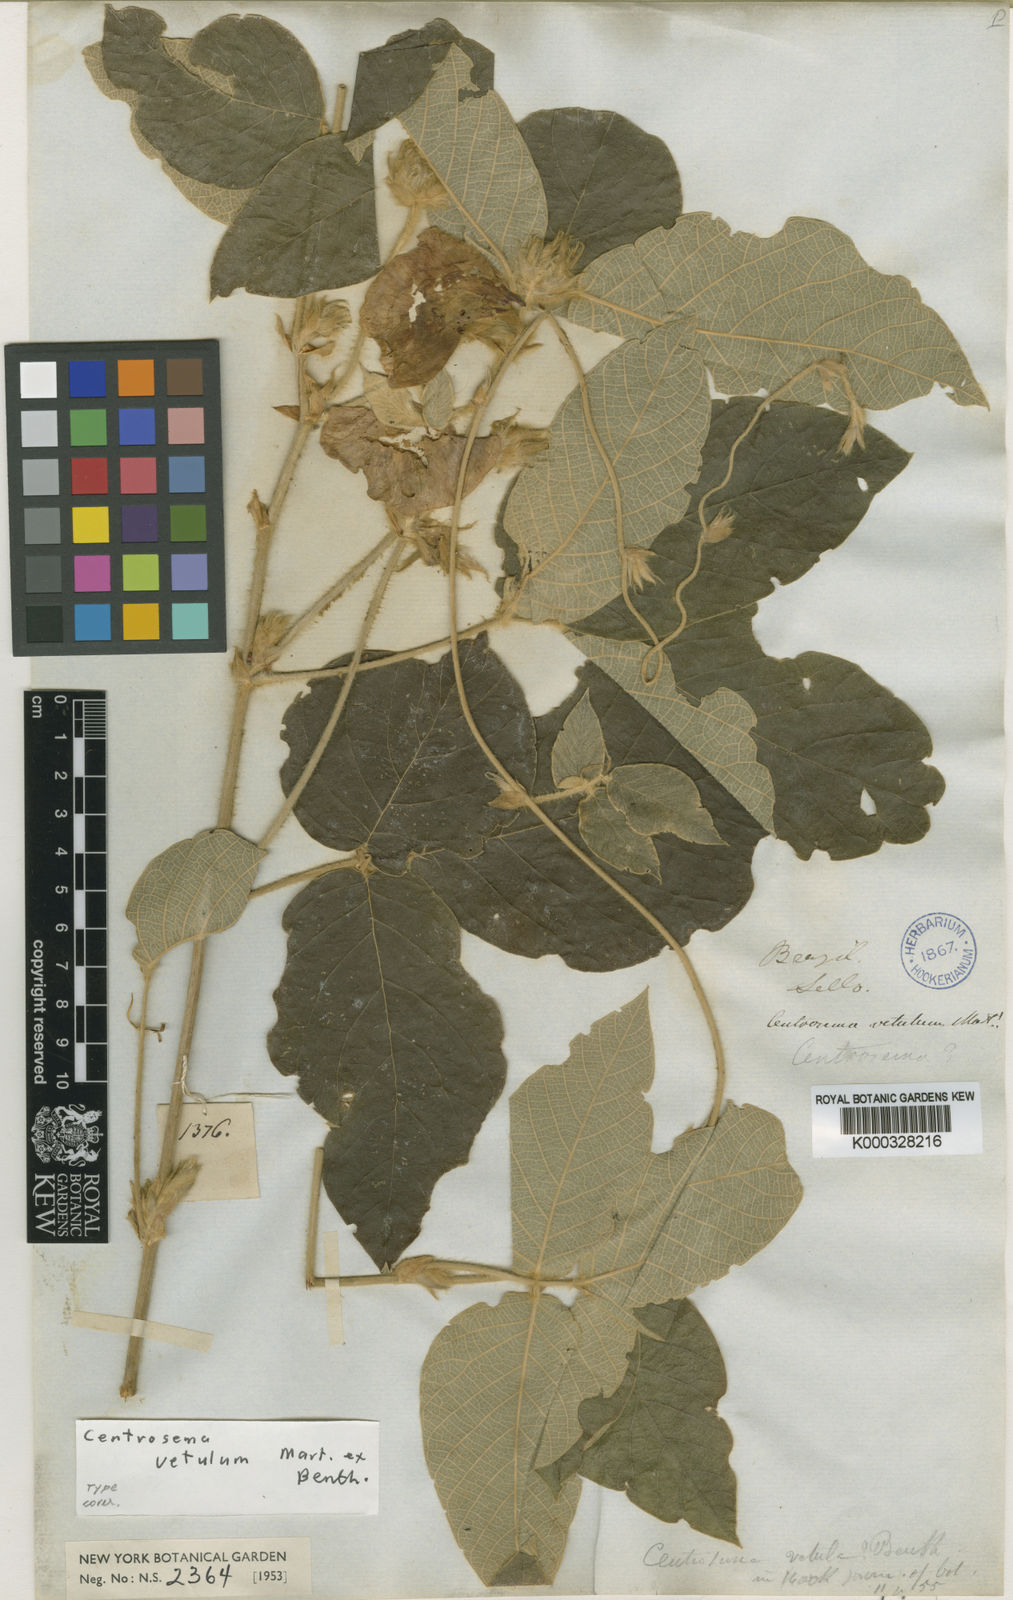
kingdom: Plantae
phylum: Tracheophyta
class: Magnoliopsida
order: Fabales
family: Fabaceae
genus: Centrosema
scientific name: Centrosema vetulum
